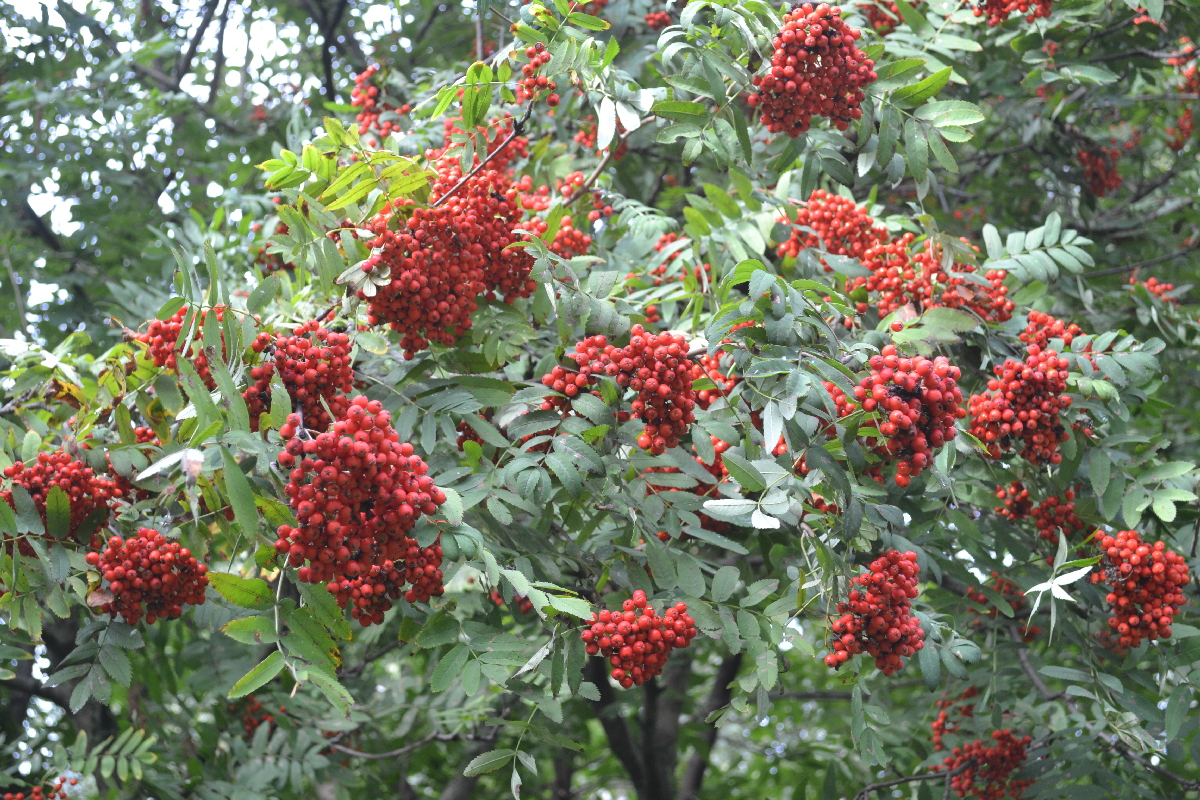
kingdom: Plantae
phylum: Tracheophyta
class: Magnoliopsida
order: Rosales
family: Rosaceae
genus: Sorbus
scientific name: Sorbus aucuparia
